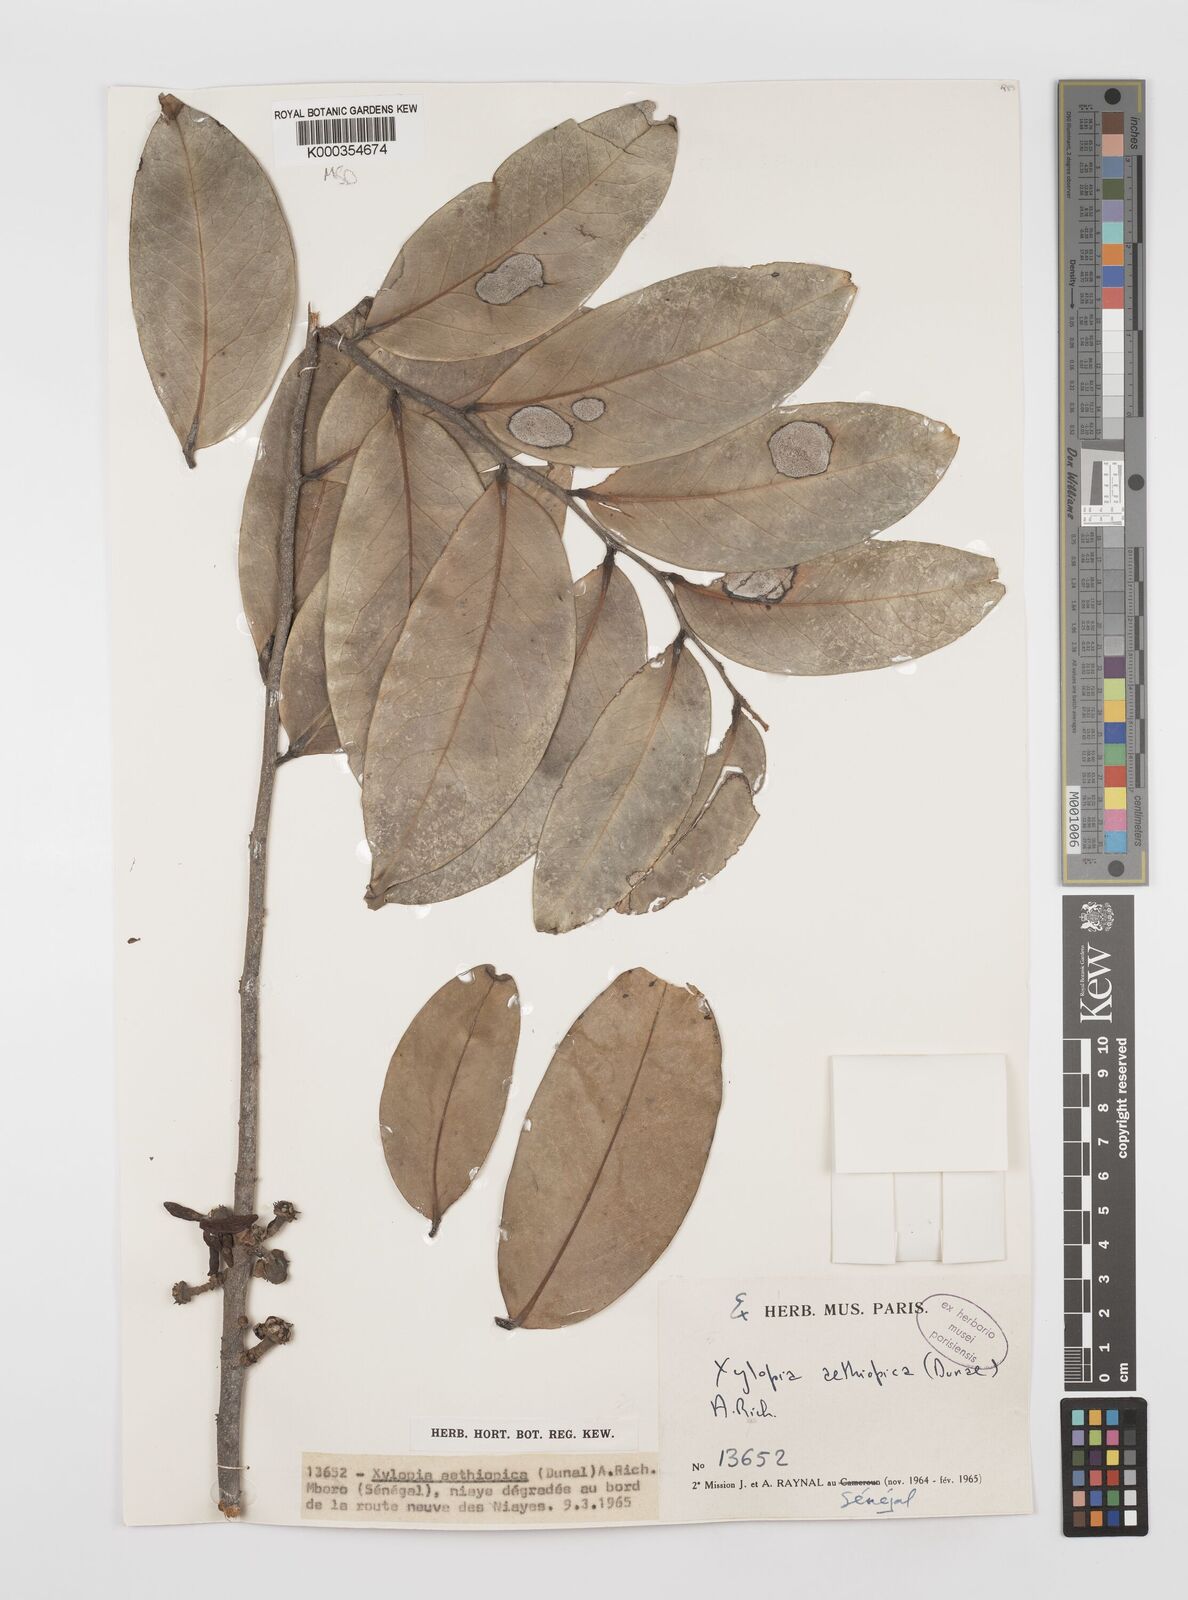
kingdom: Plantae
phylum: Tracheophyta
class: Magnoliopsida
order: Magnoliales
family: Annonaceae
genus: Xylopia
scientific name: Xylopia aethiopica
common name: Ethiopian-pepper
